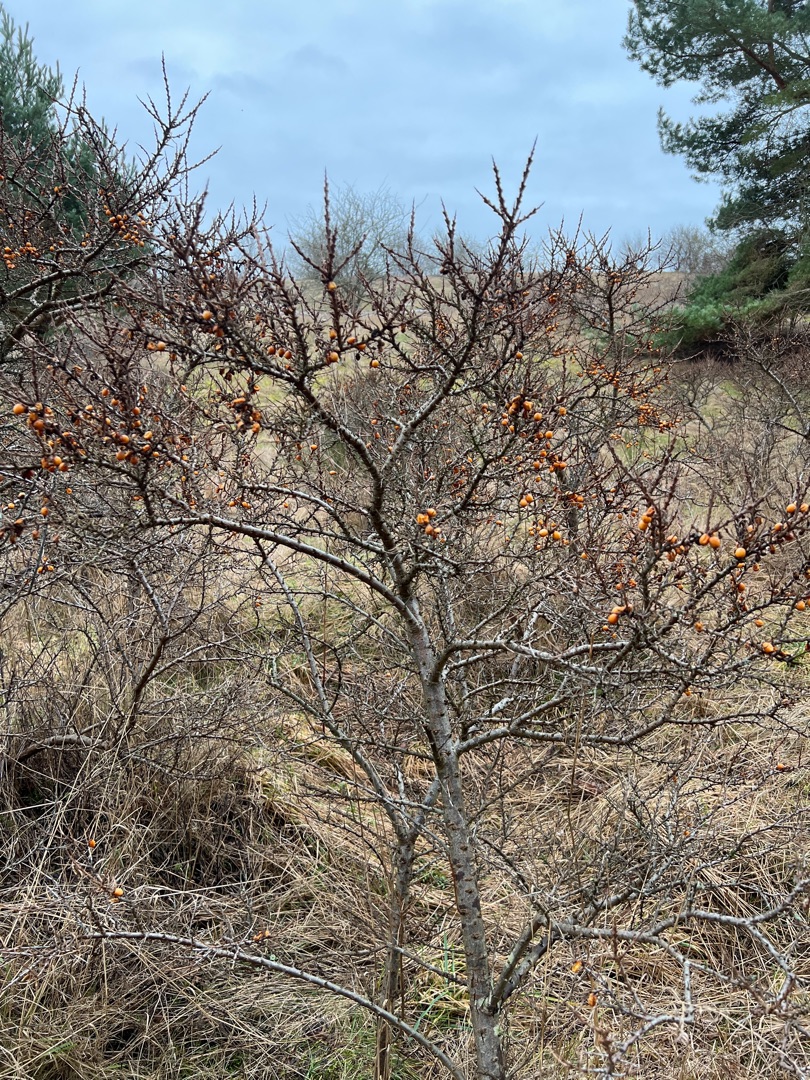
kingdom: Plantae
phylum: Tracheophyta
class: Magnoliopsida
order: Rosales
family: Elaeagnaceae
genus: Hippophae
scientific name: Hippophae rhamnoides
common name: Havtorn
